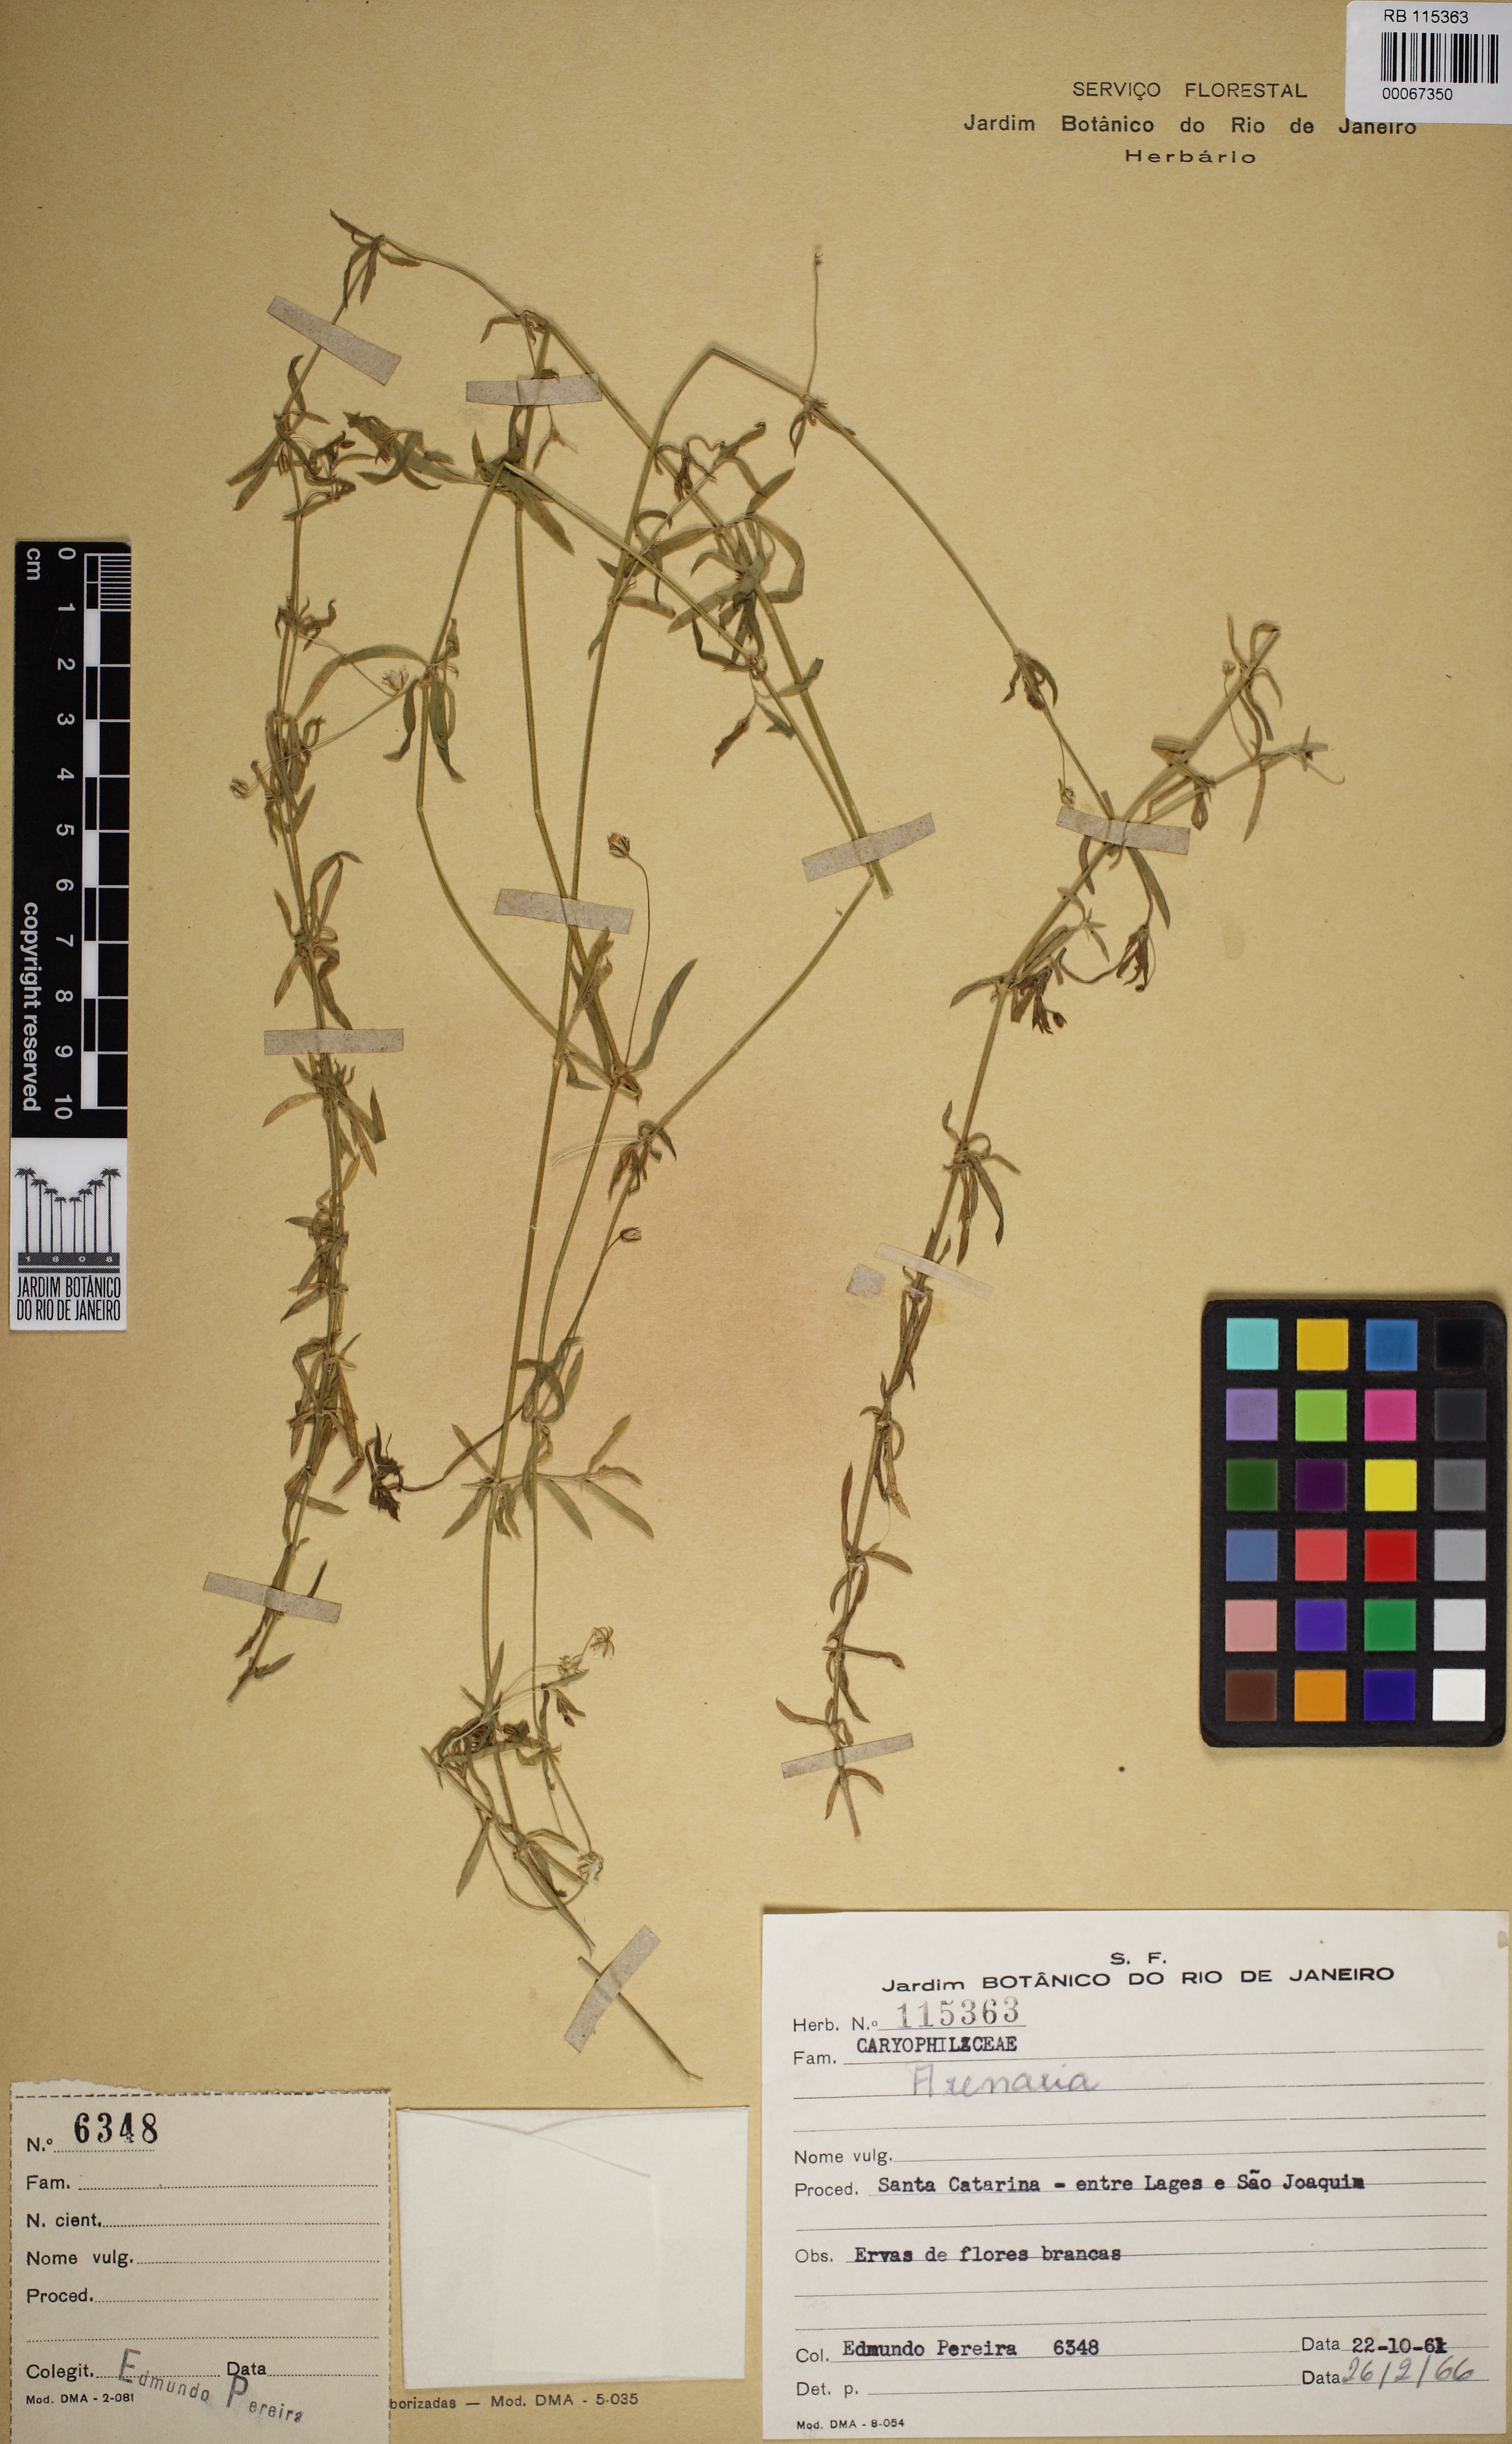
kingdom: Plantae
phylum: Tracheophyta
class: Magnoliopsida
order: Caryophyllales
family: Caryophyllaceae
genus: Arenaria
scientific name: Arenaria
